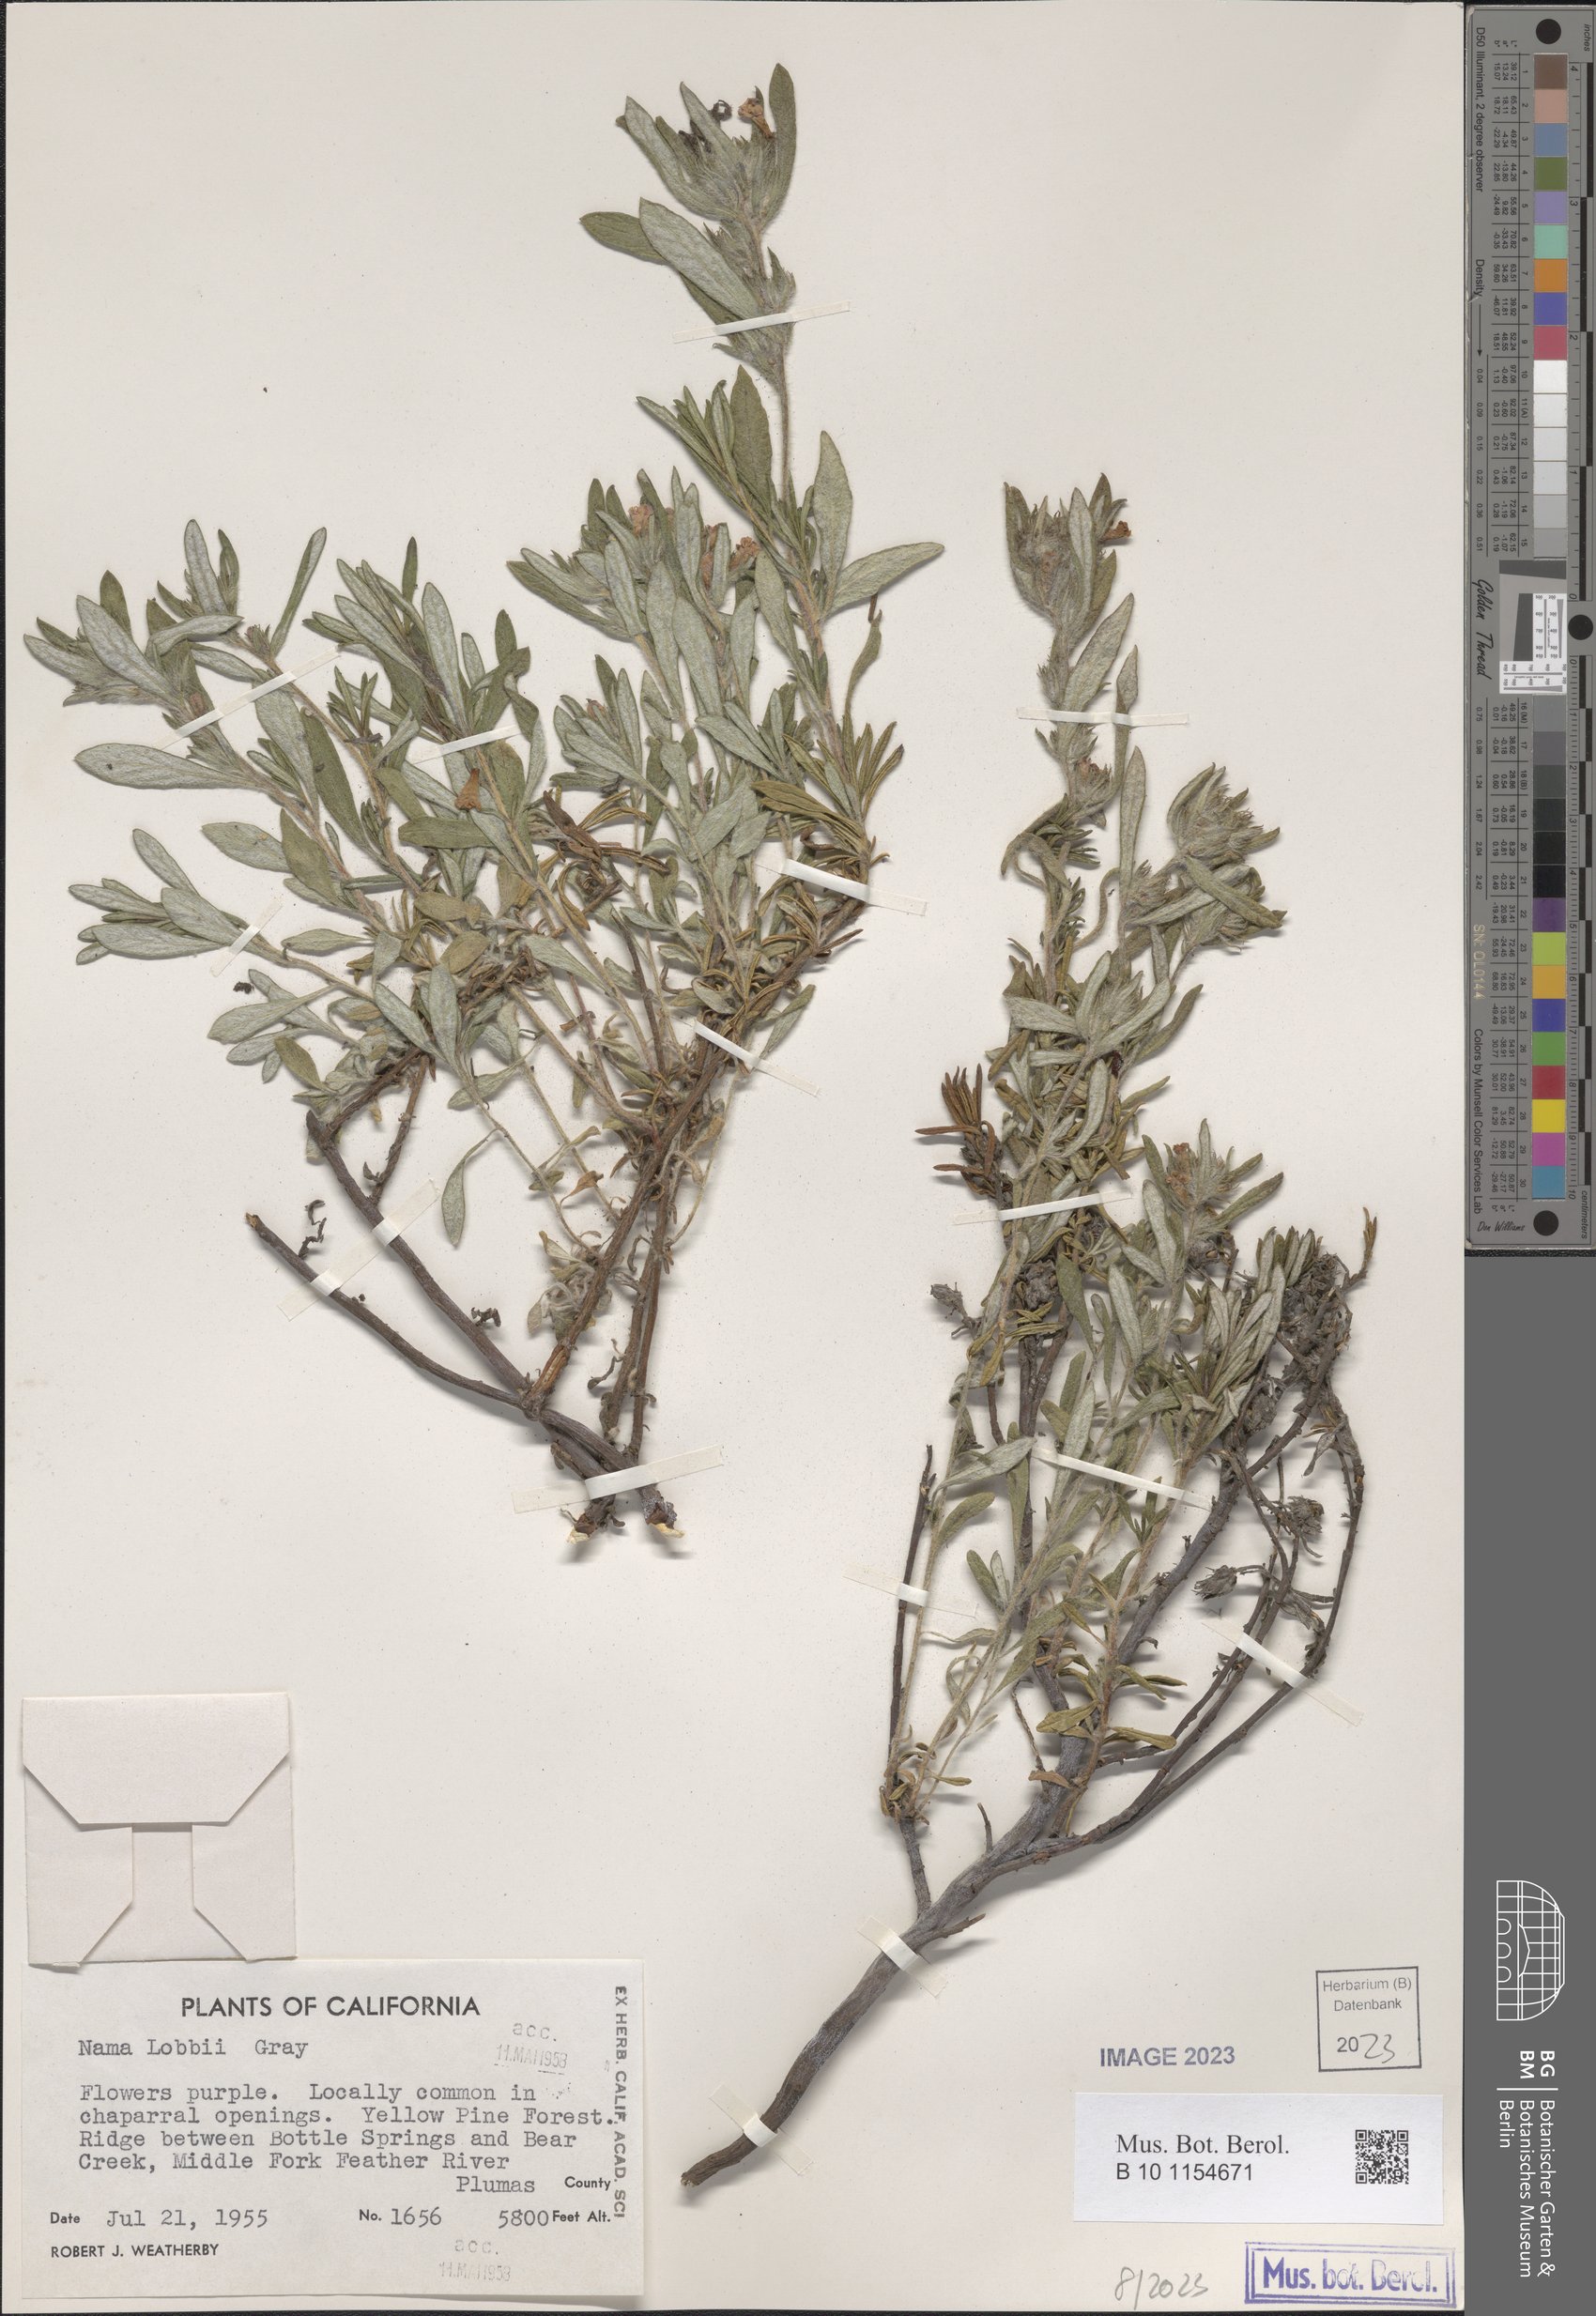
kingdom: Plantae
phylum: Tracheophyta
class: Magnoliopsida
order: Boraginales
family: Namaceae
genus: Nama
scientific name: Nama lobbii
